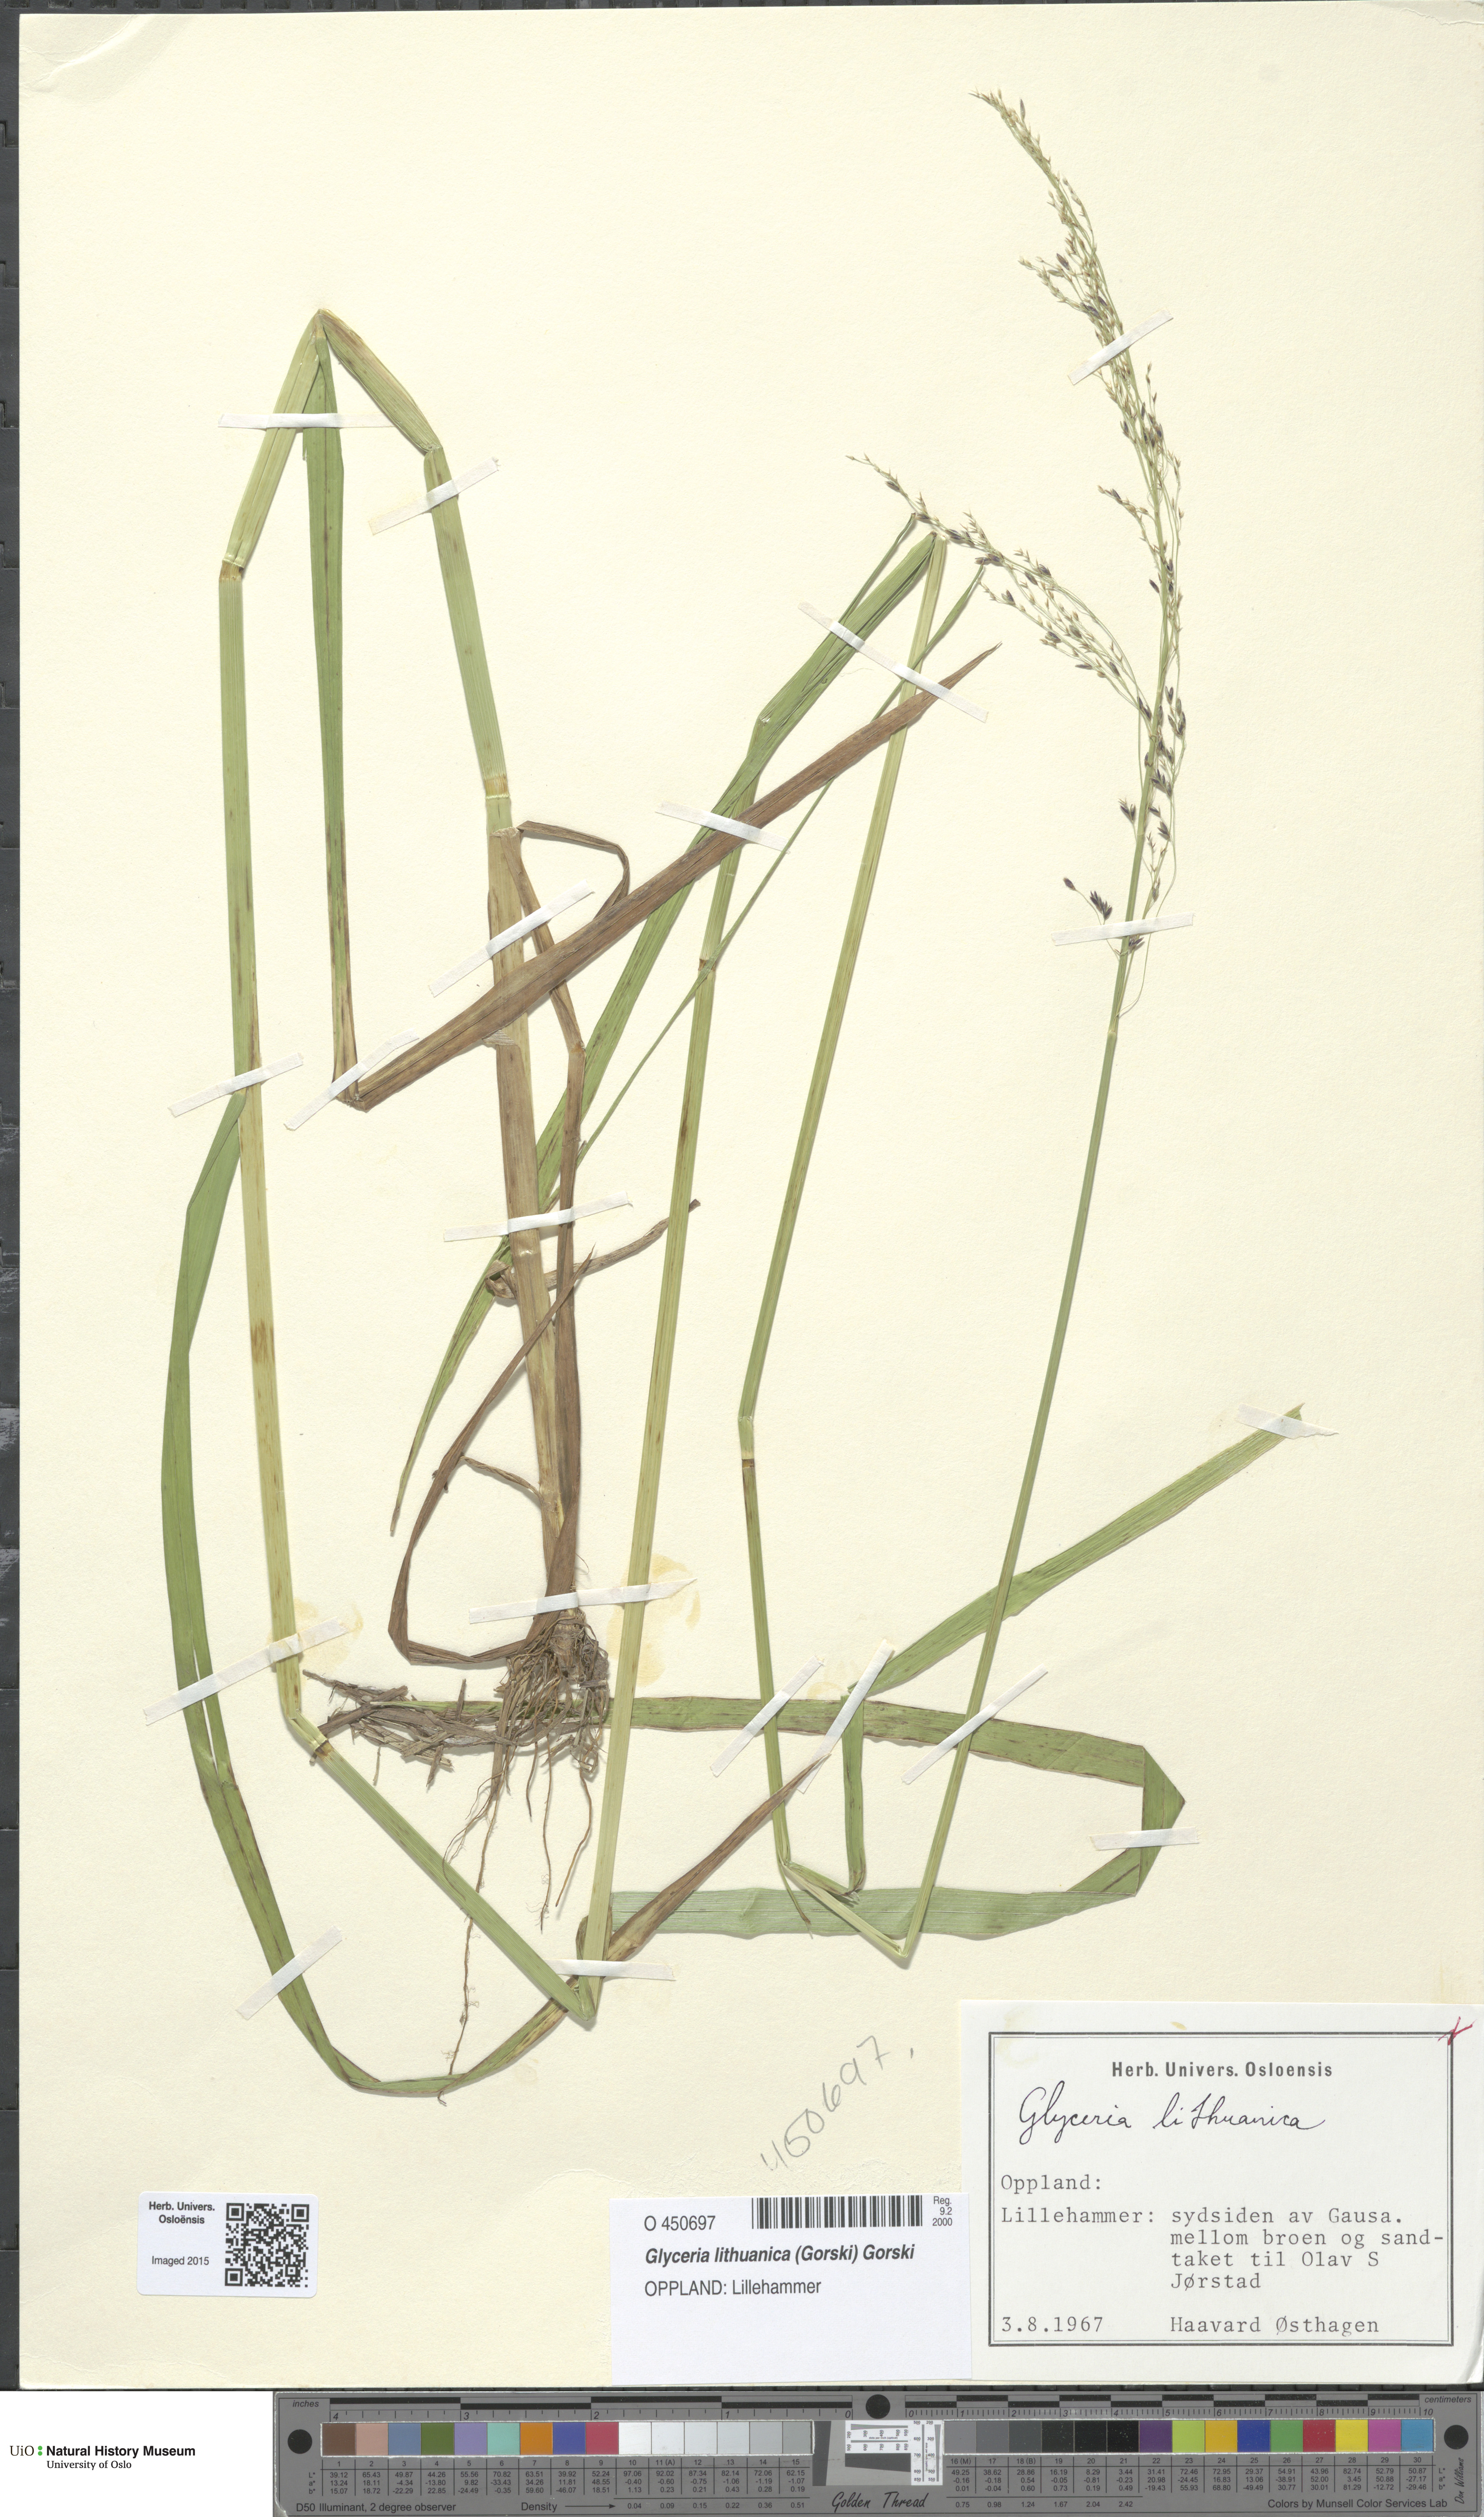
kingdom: Plantae
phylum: Tracheophyta
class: Liliopsida
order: Poales
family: Poaceae
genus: Glyceria
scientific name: Glyceria lithuanica
